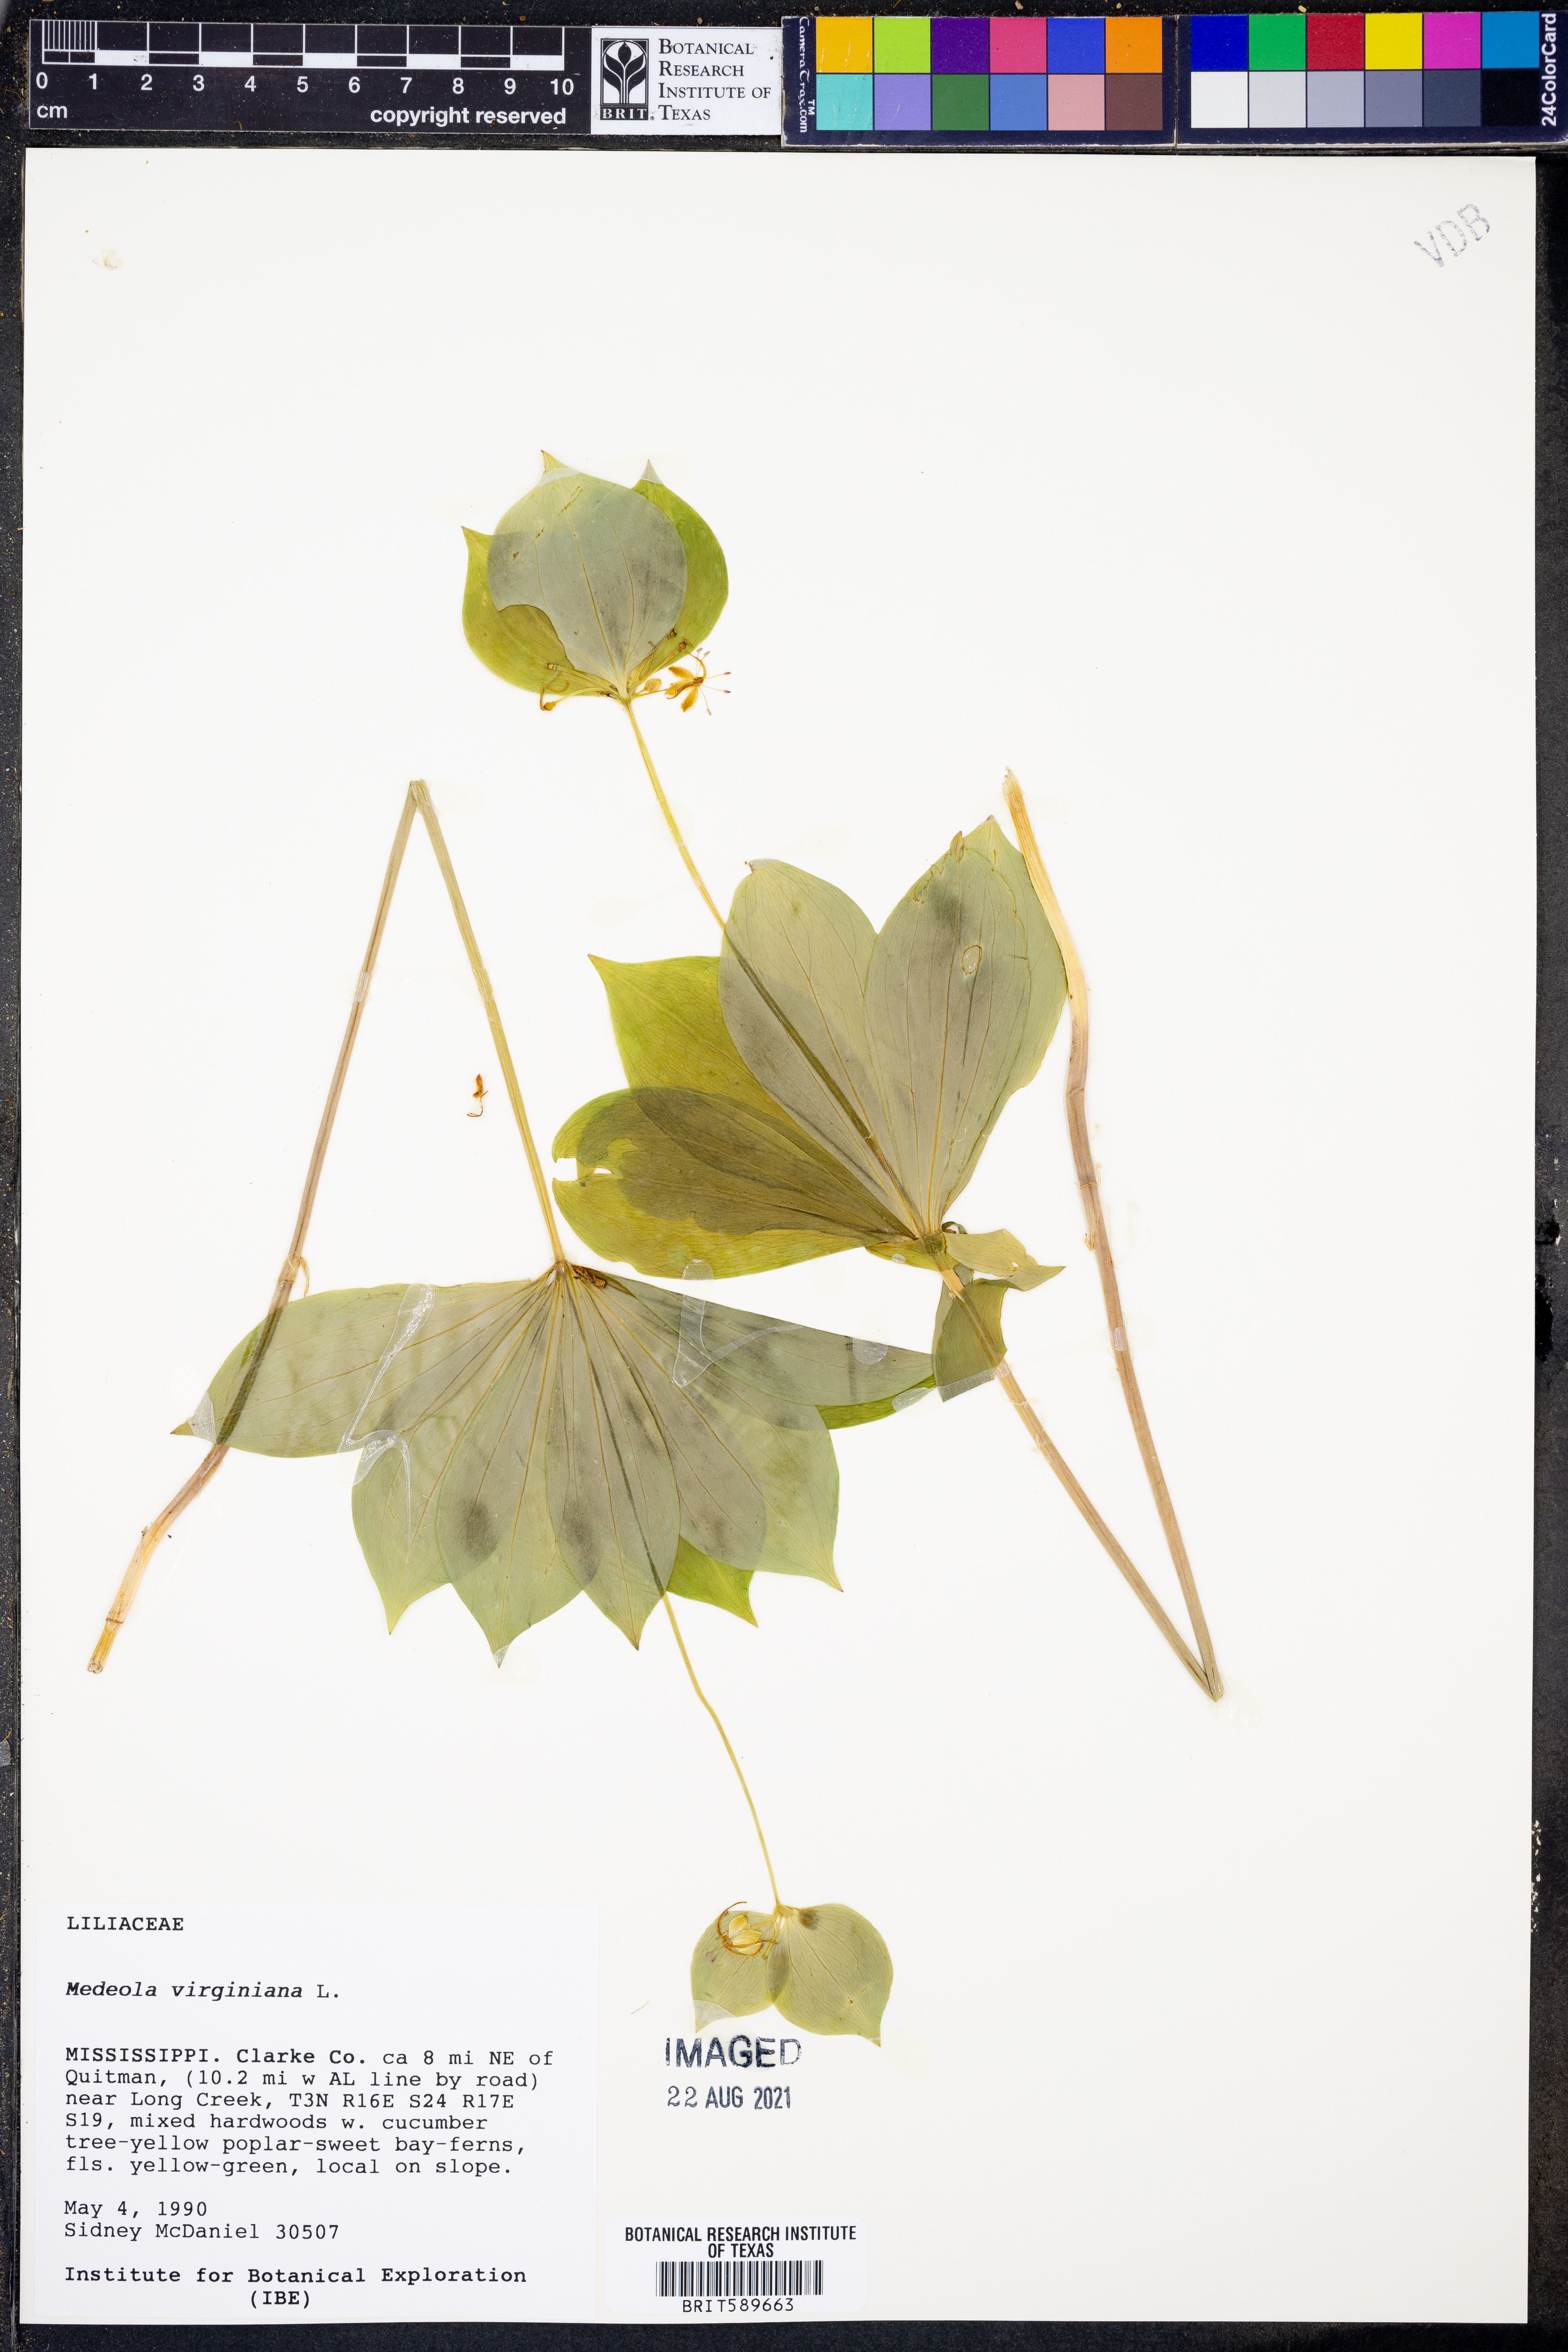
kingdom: Plantae
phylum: Tracheophyta
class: Liliopsida
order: Liliales
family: Liliaceae
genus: Medeola
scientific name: Medeola virginiana
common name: Indian cucumber-root
